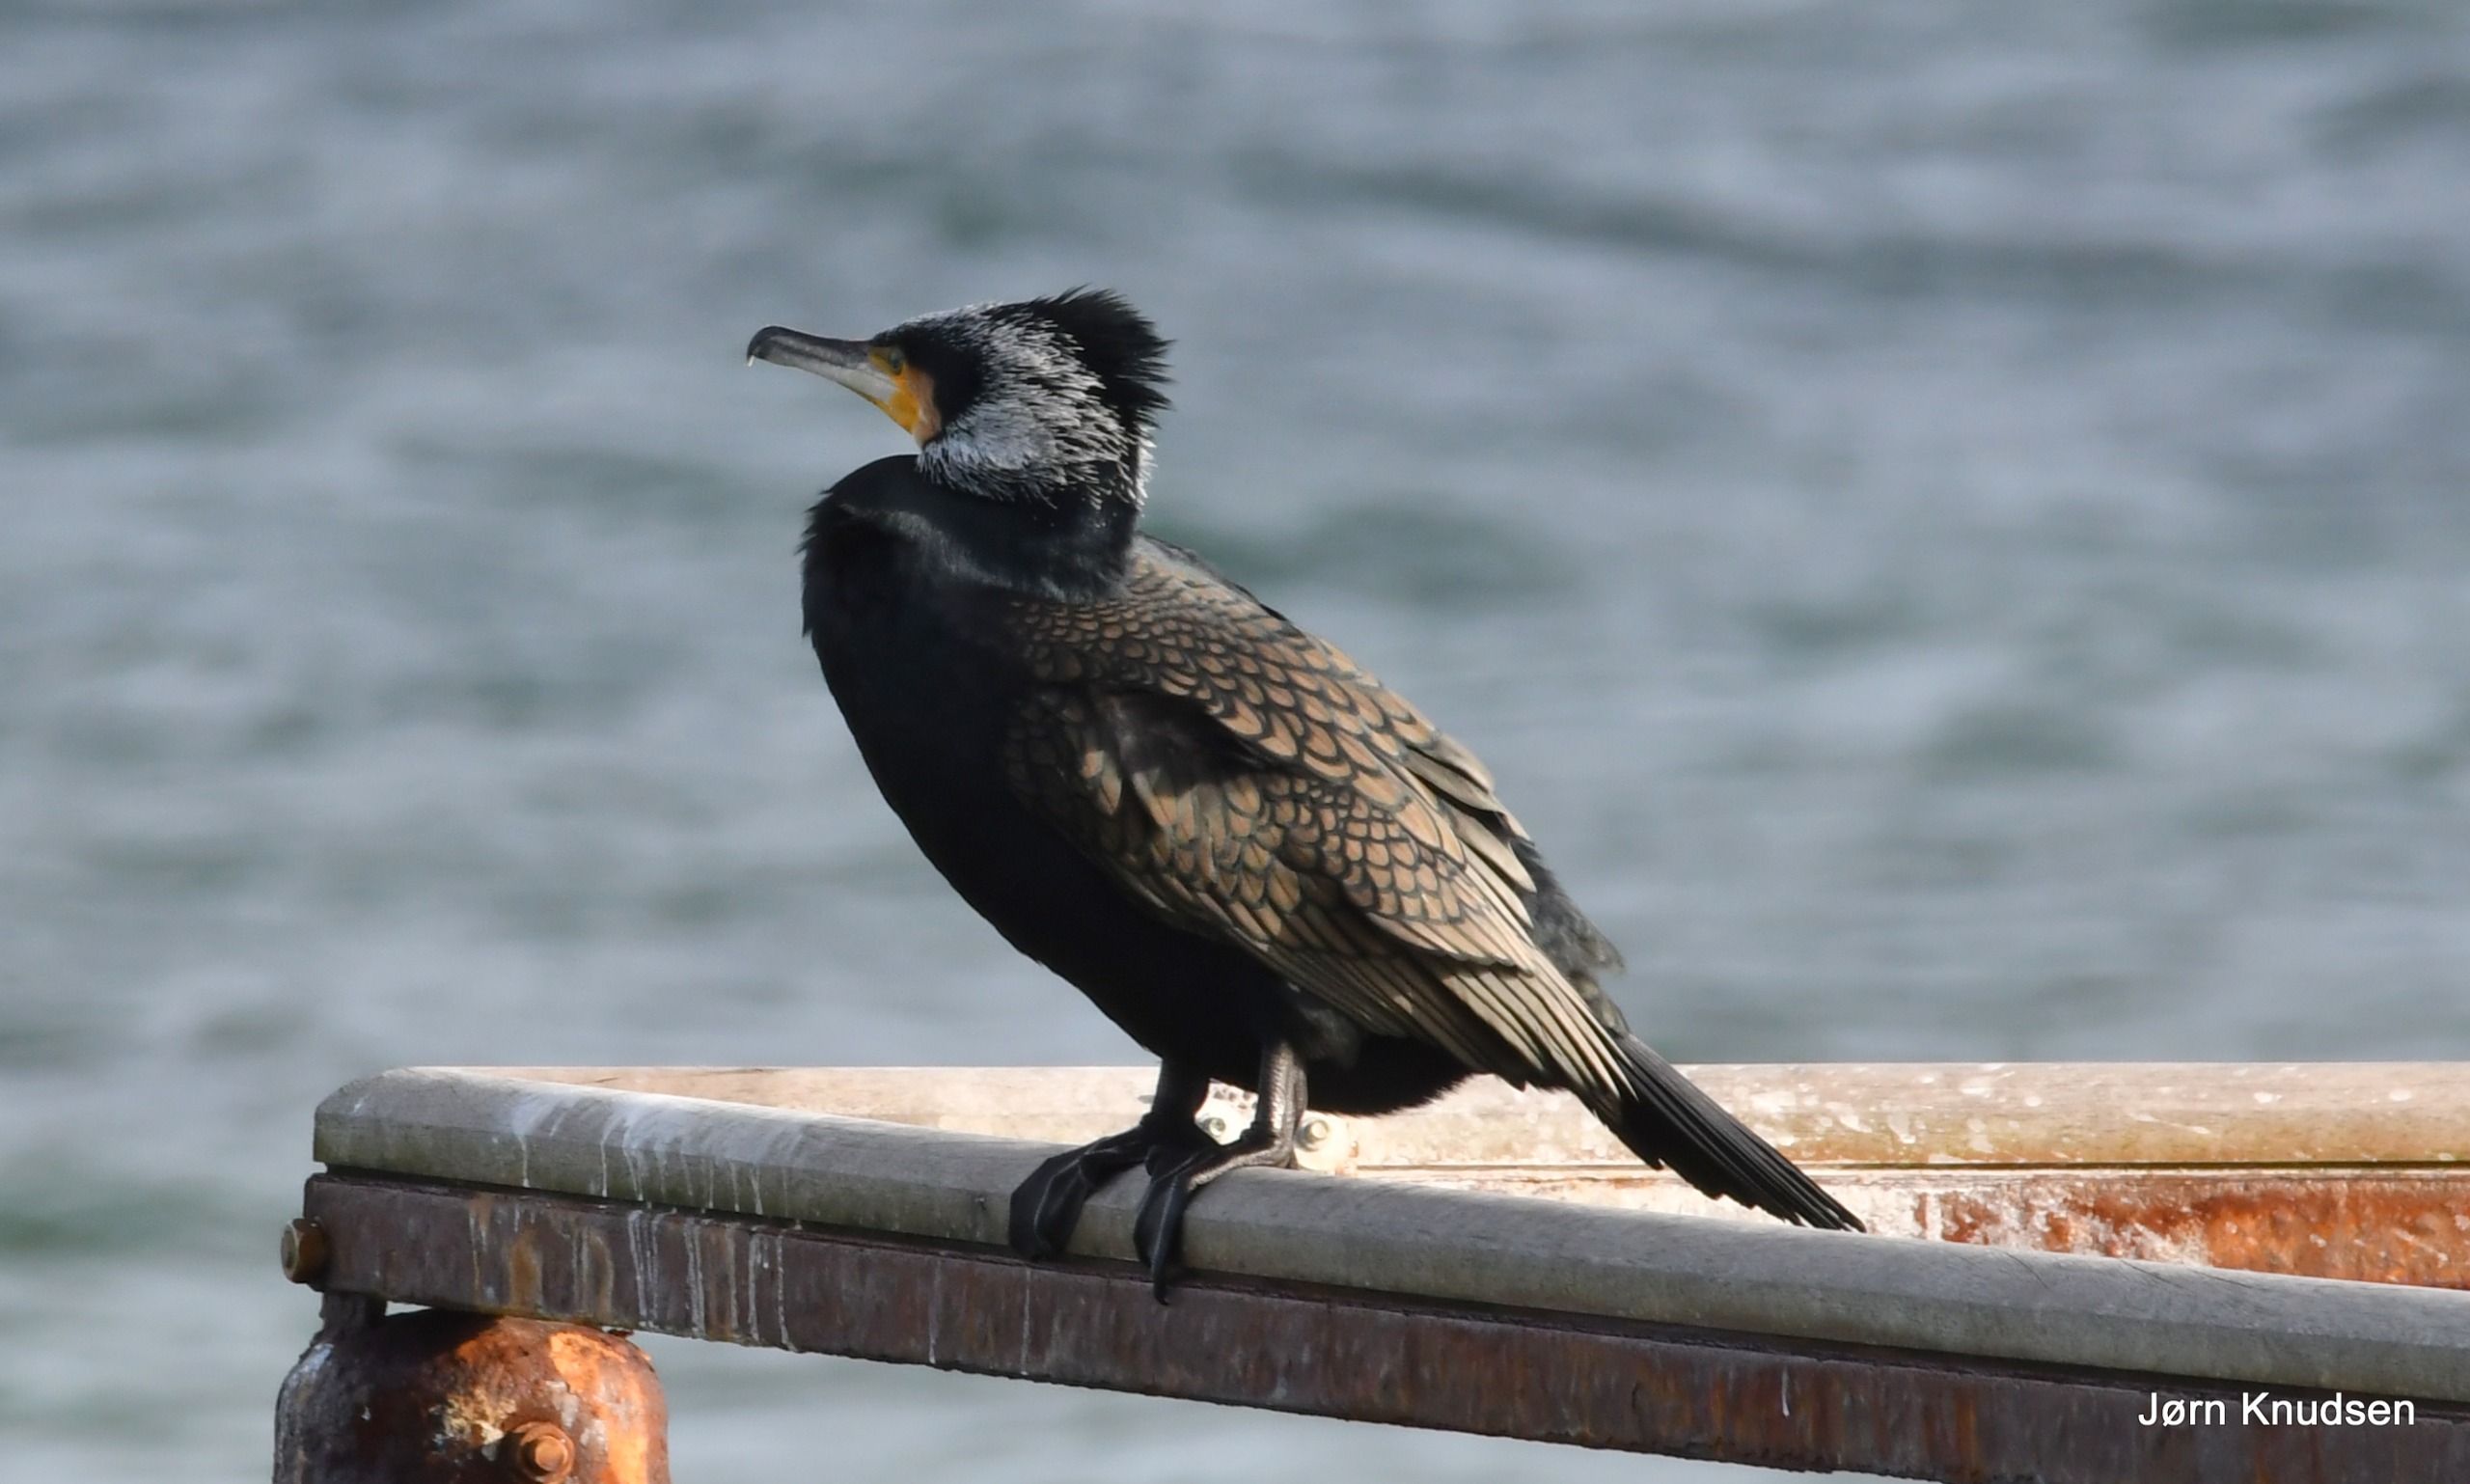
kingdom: Animalia
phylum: Chordata
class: Aves
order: Suliformes
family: Phalacrocoracidae
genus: Phalacrocorax
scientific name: Phalacrocorax carbo
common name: Mellemskarv
